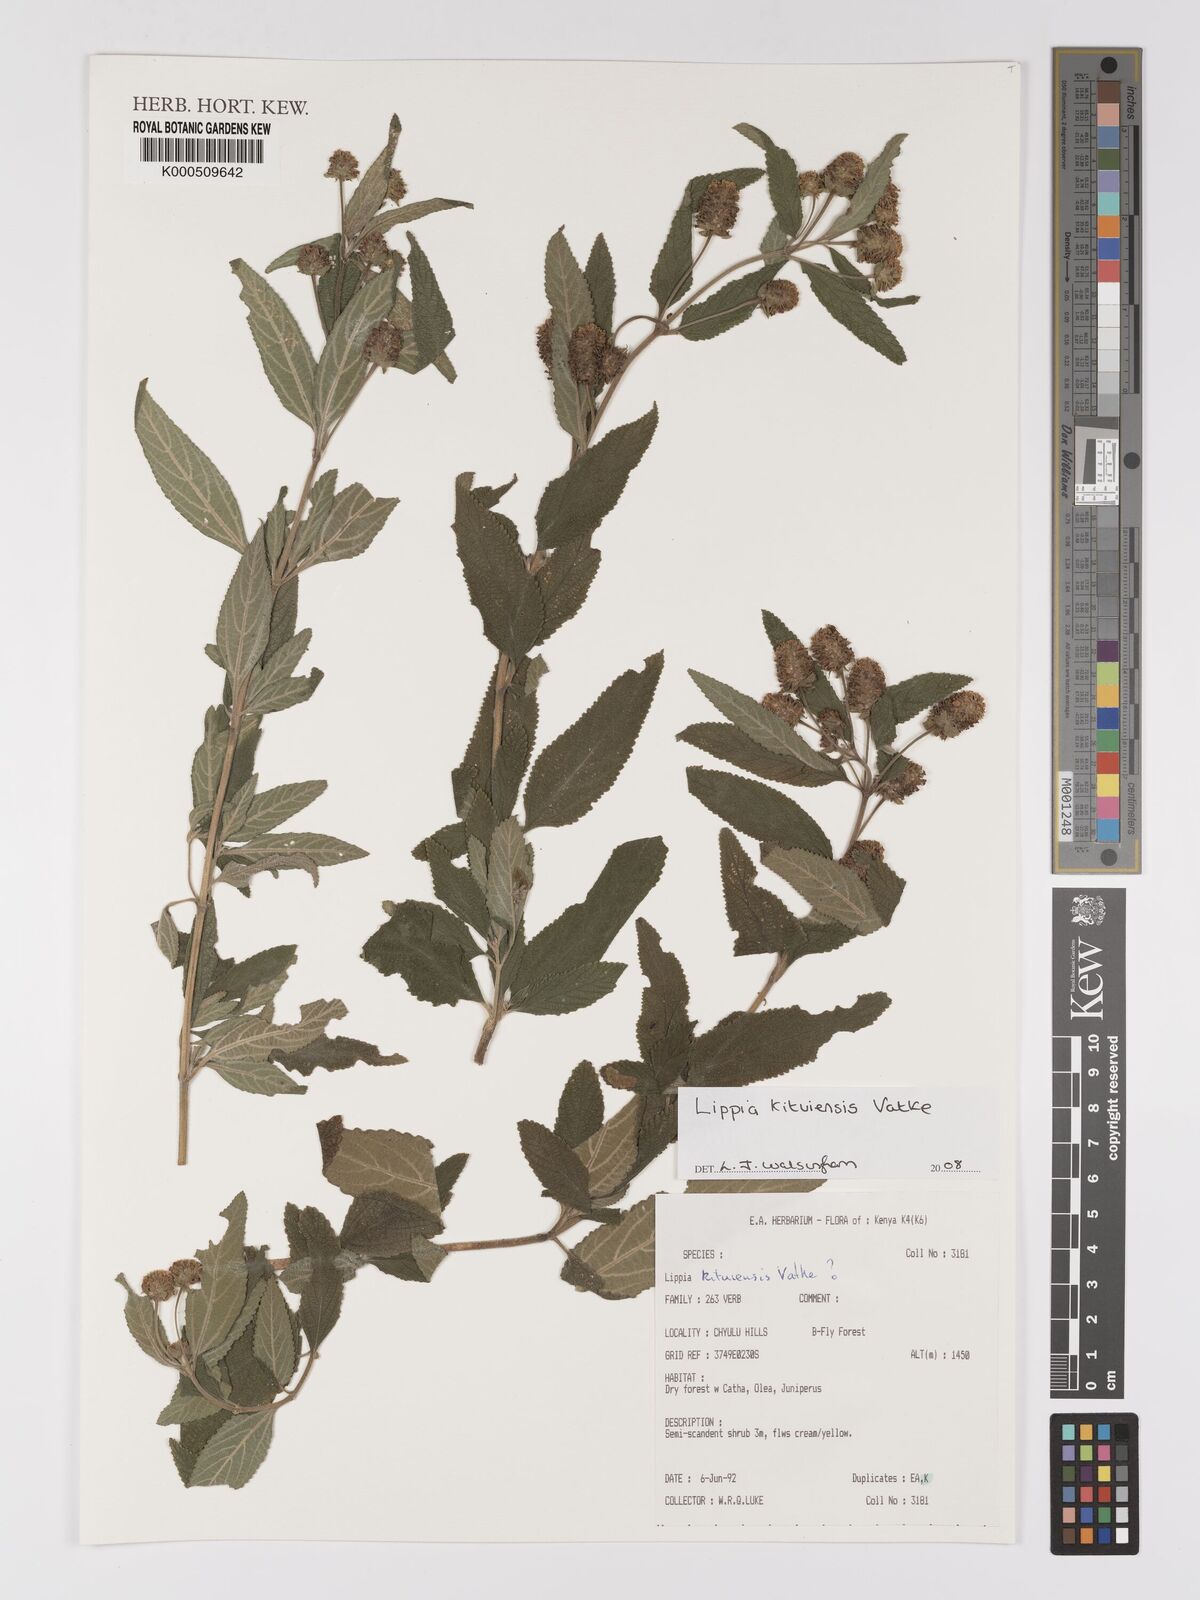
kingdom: Plantae
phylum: Tracheophyta
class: Magnoliopsida
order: Lamiales
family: Verbenaceae
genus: Lippia
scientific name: Lippia kituiensis
